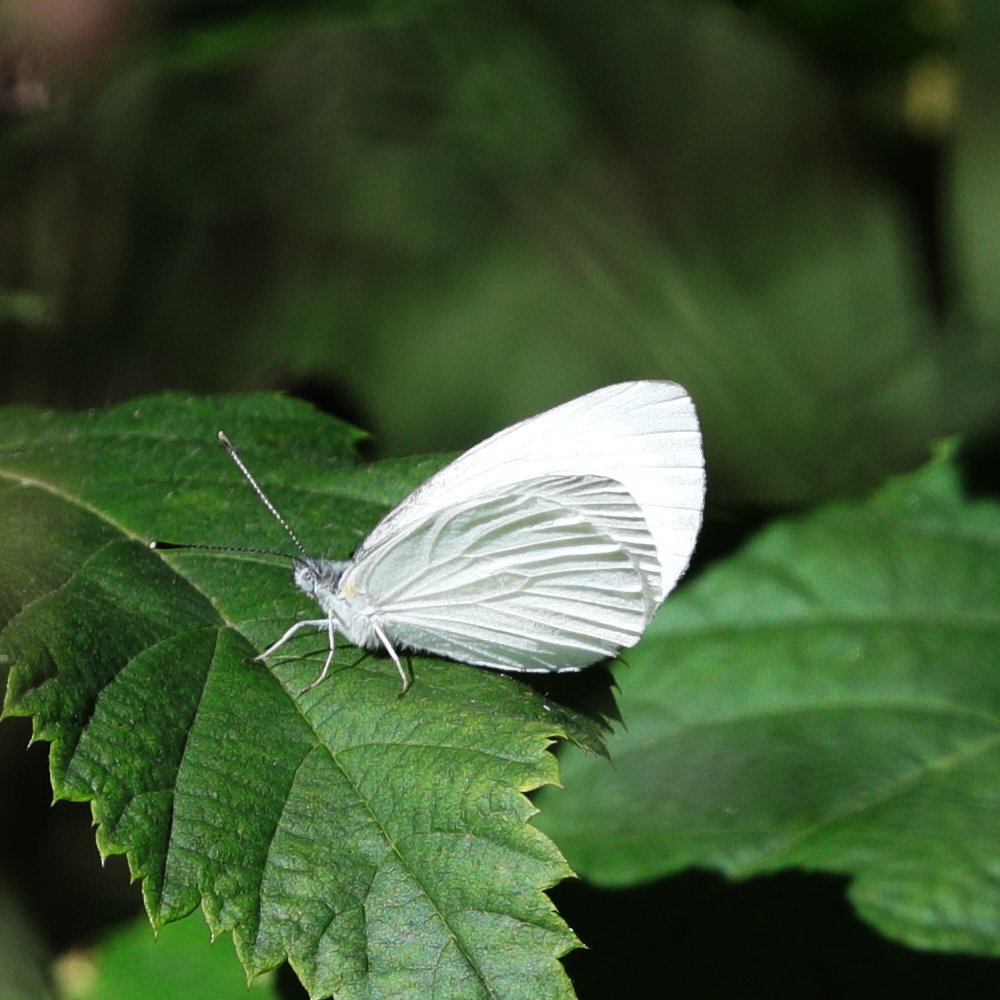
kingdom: Animalia
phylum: Arthropoda
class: Insecta
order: Lepidoptera
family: Pieridae
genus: Pieris
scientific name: Pieris oleracea
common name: Mustard White
